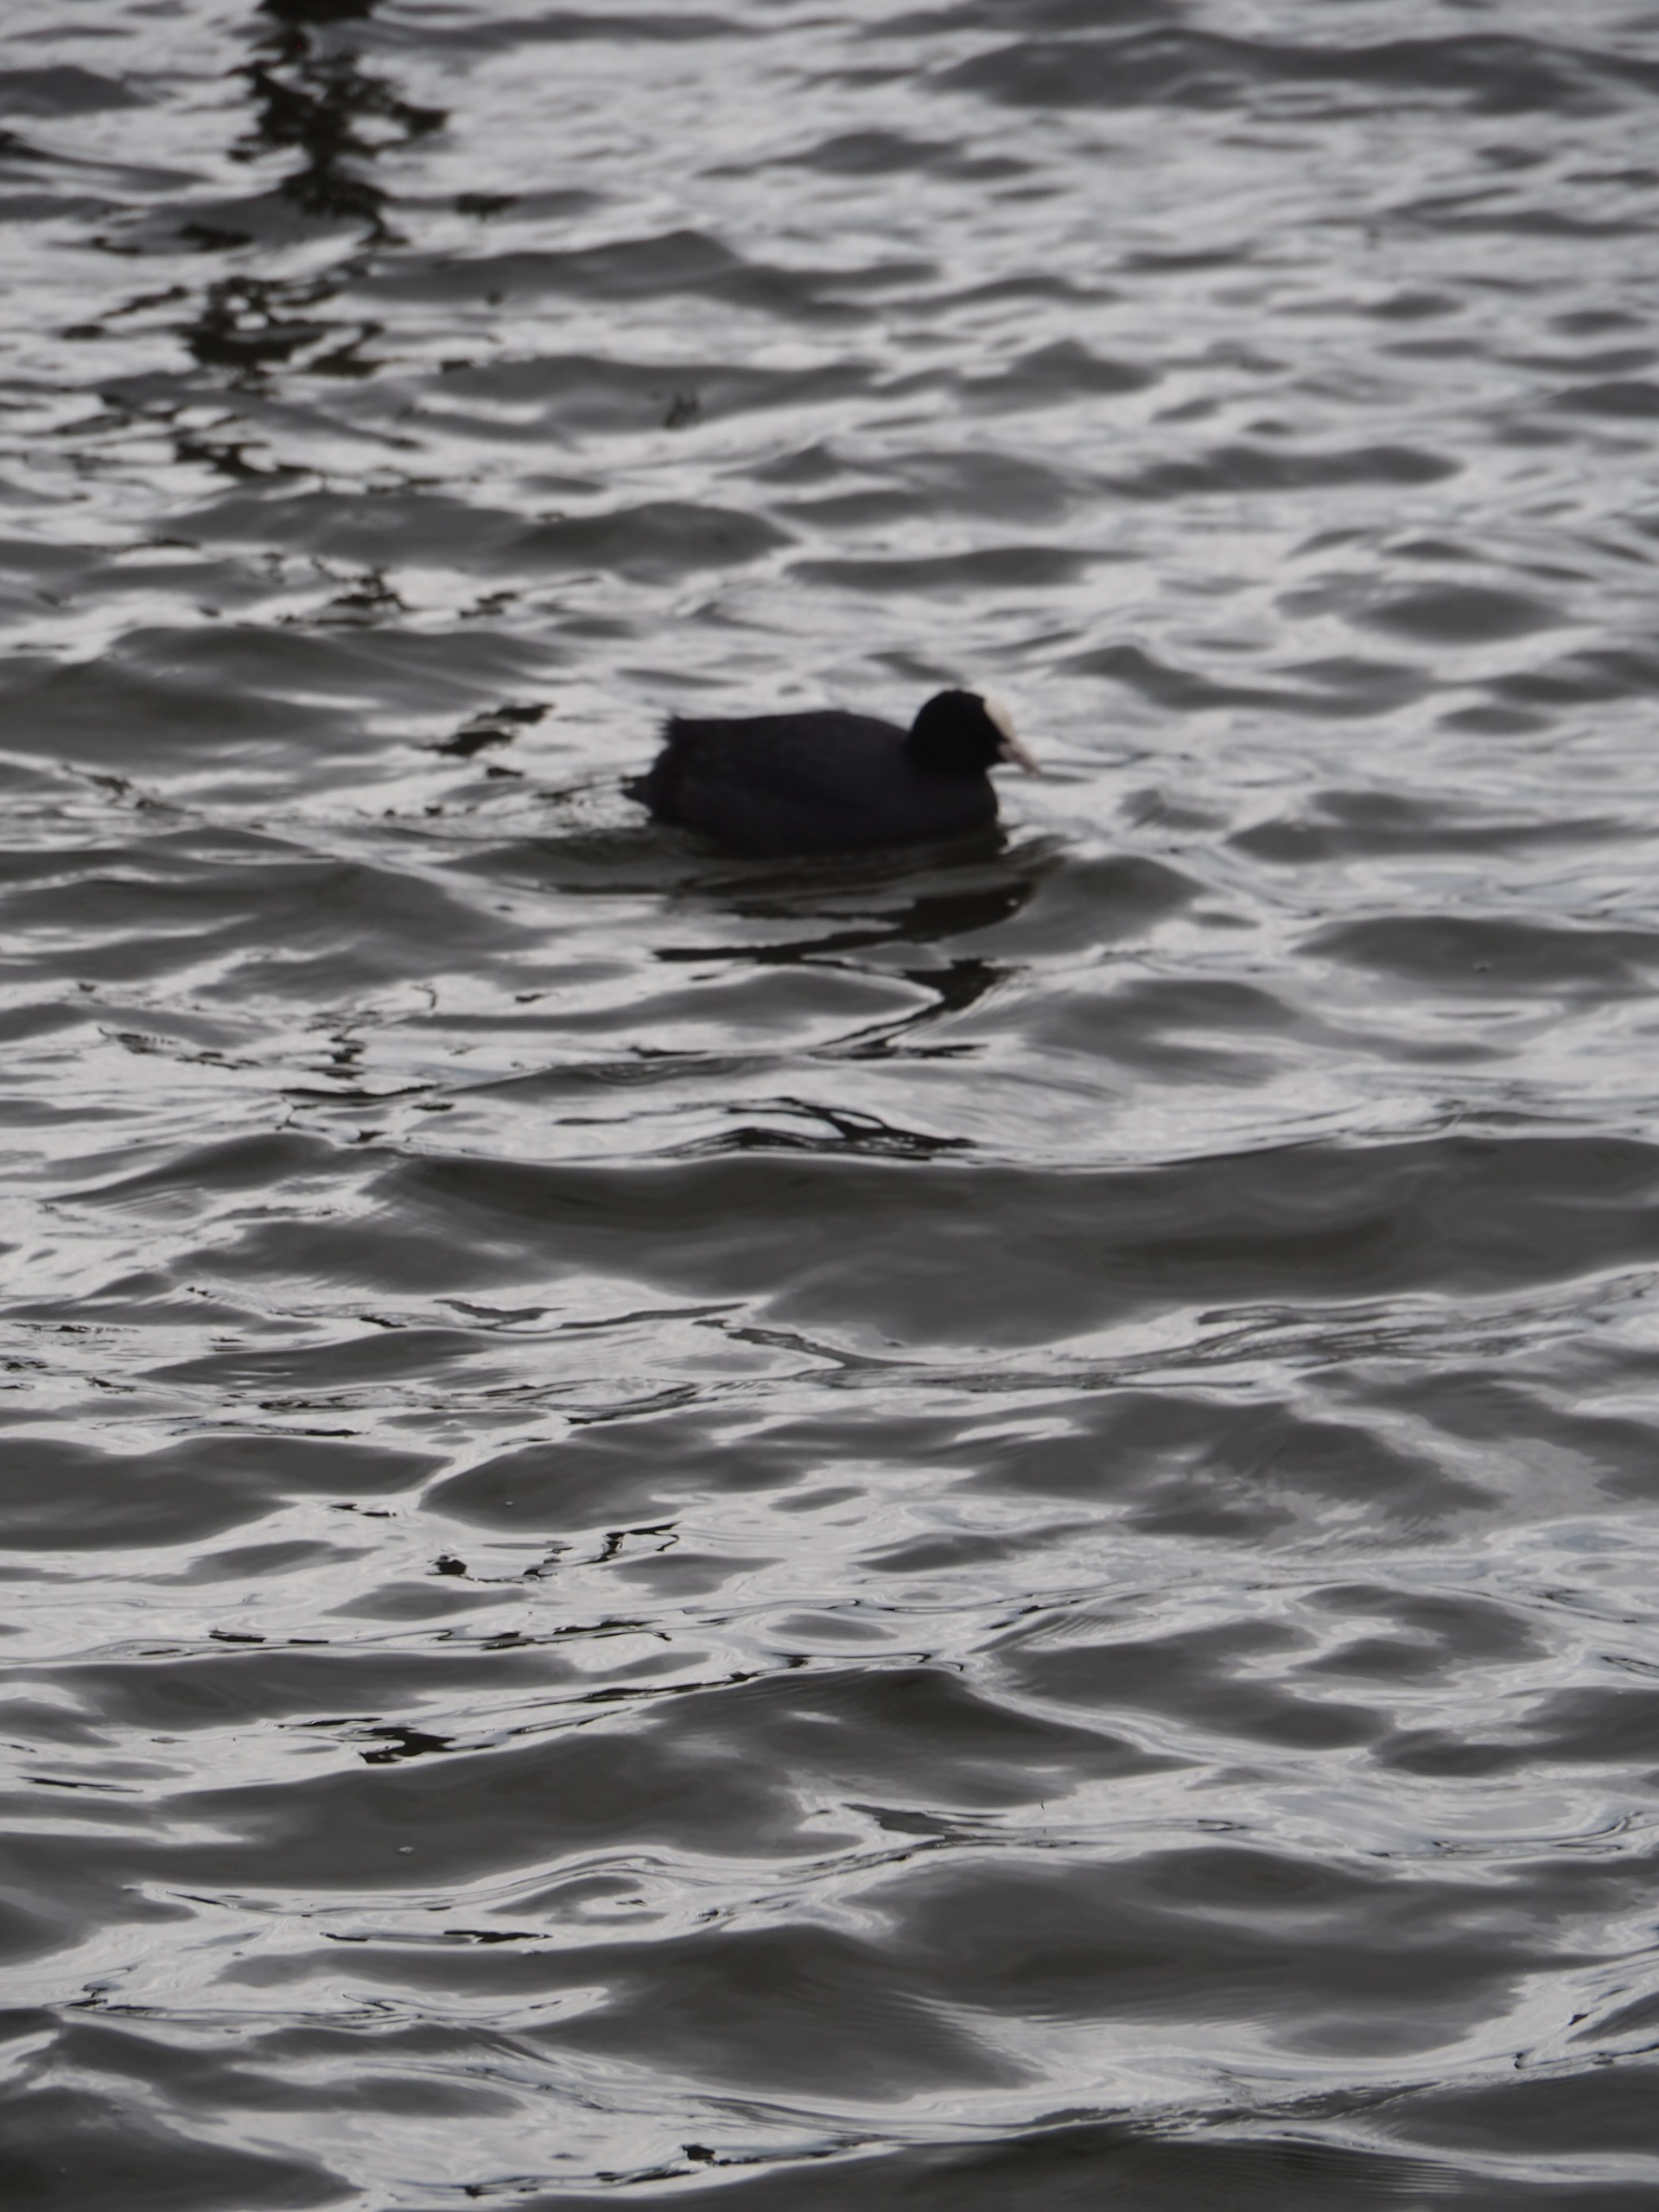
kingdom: Animalia
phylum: Chordata
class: Aves
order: Gruiformes
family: Rallidae
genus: Fulica
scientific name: Fulica atra
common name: Blishøne
